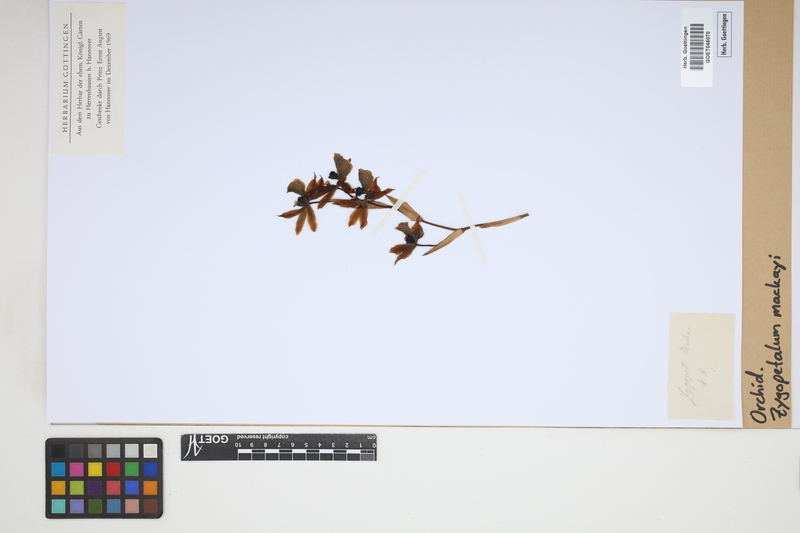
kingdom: Plantae
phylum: Tracheophyta
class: Liliopsida
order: Asparagales
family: Orchidaceae
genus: Zygopetalum
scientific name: Zygopetalum maculatum
